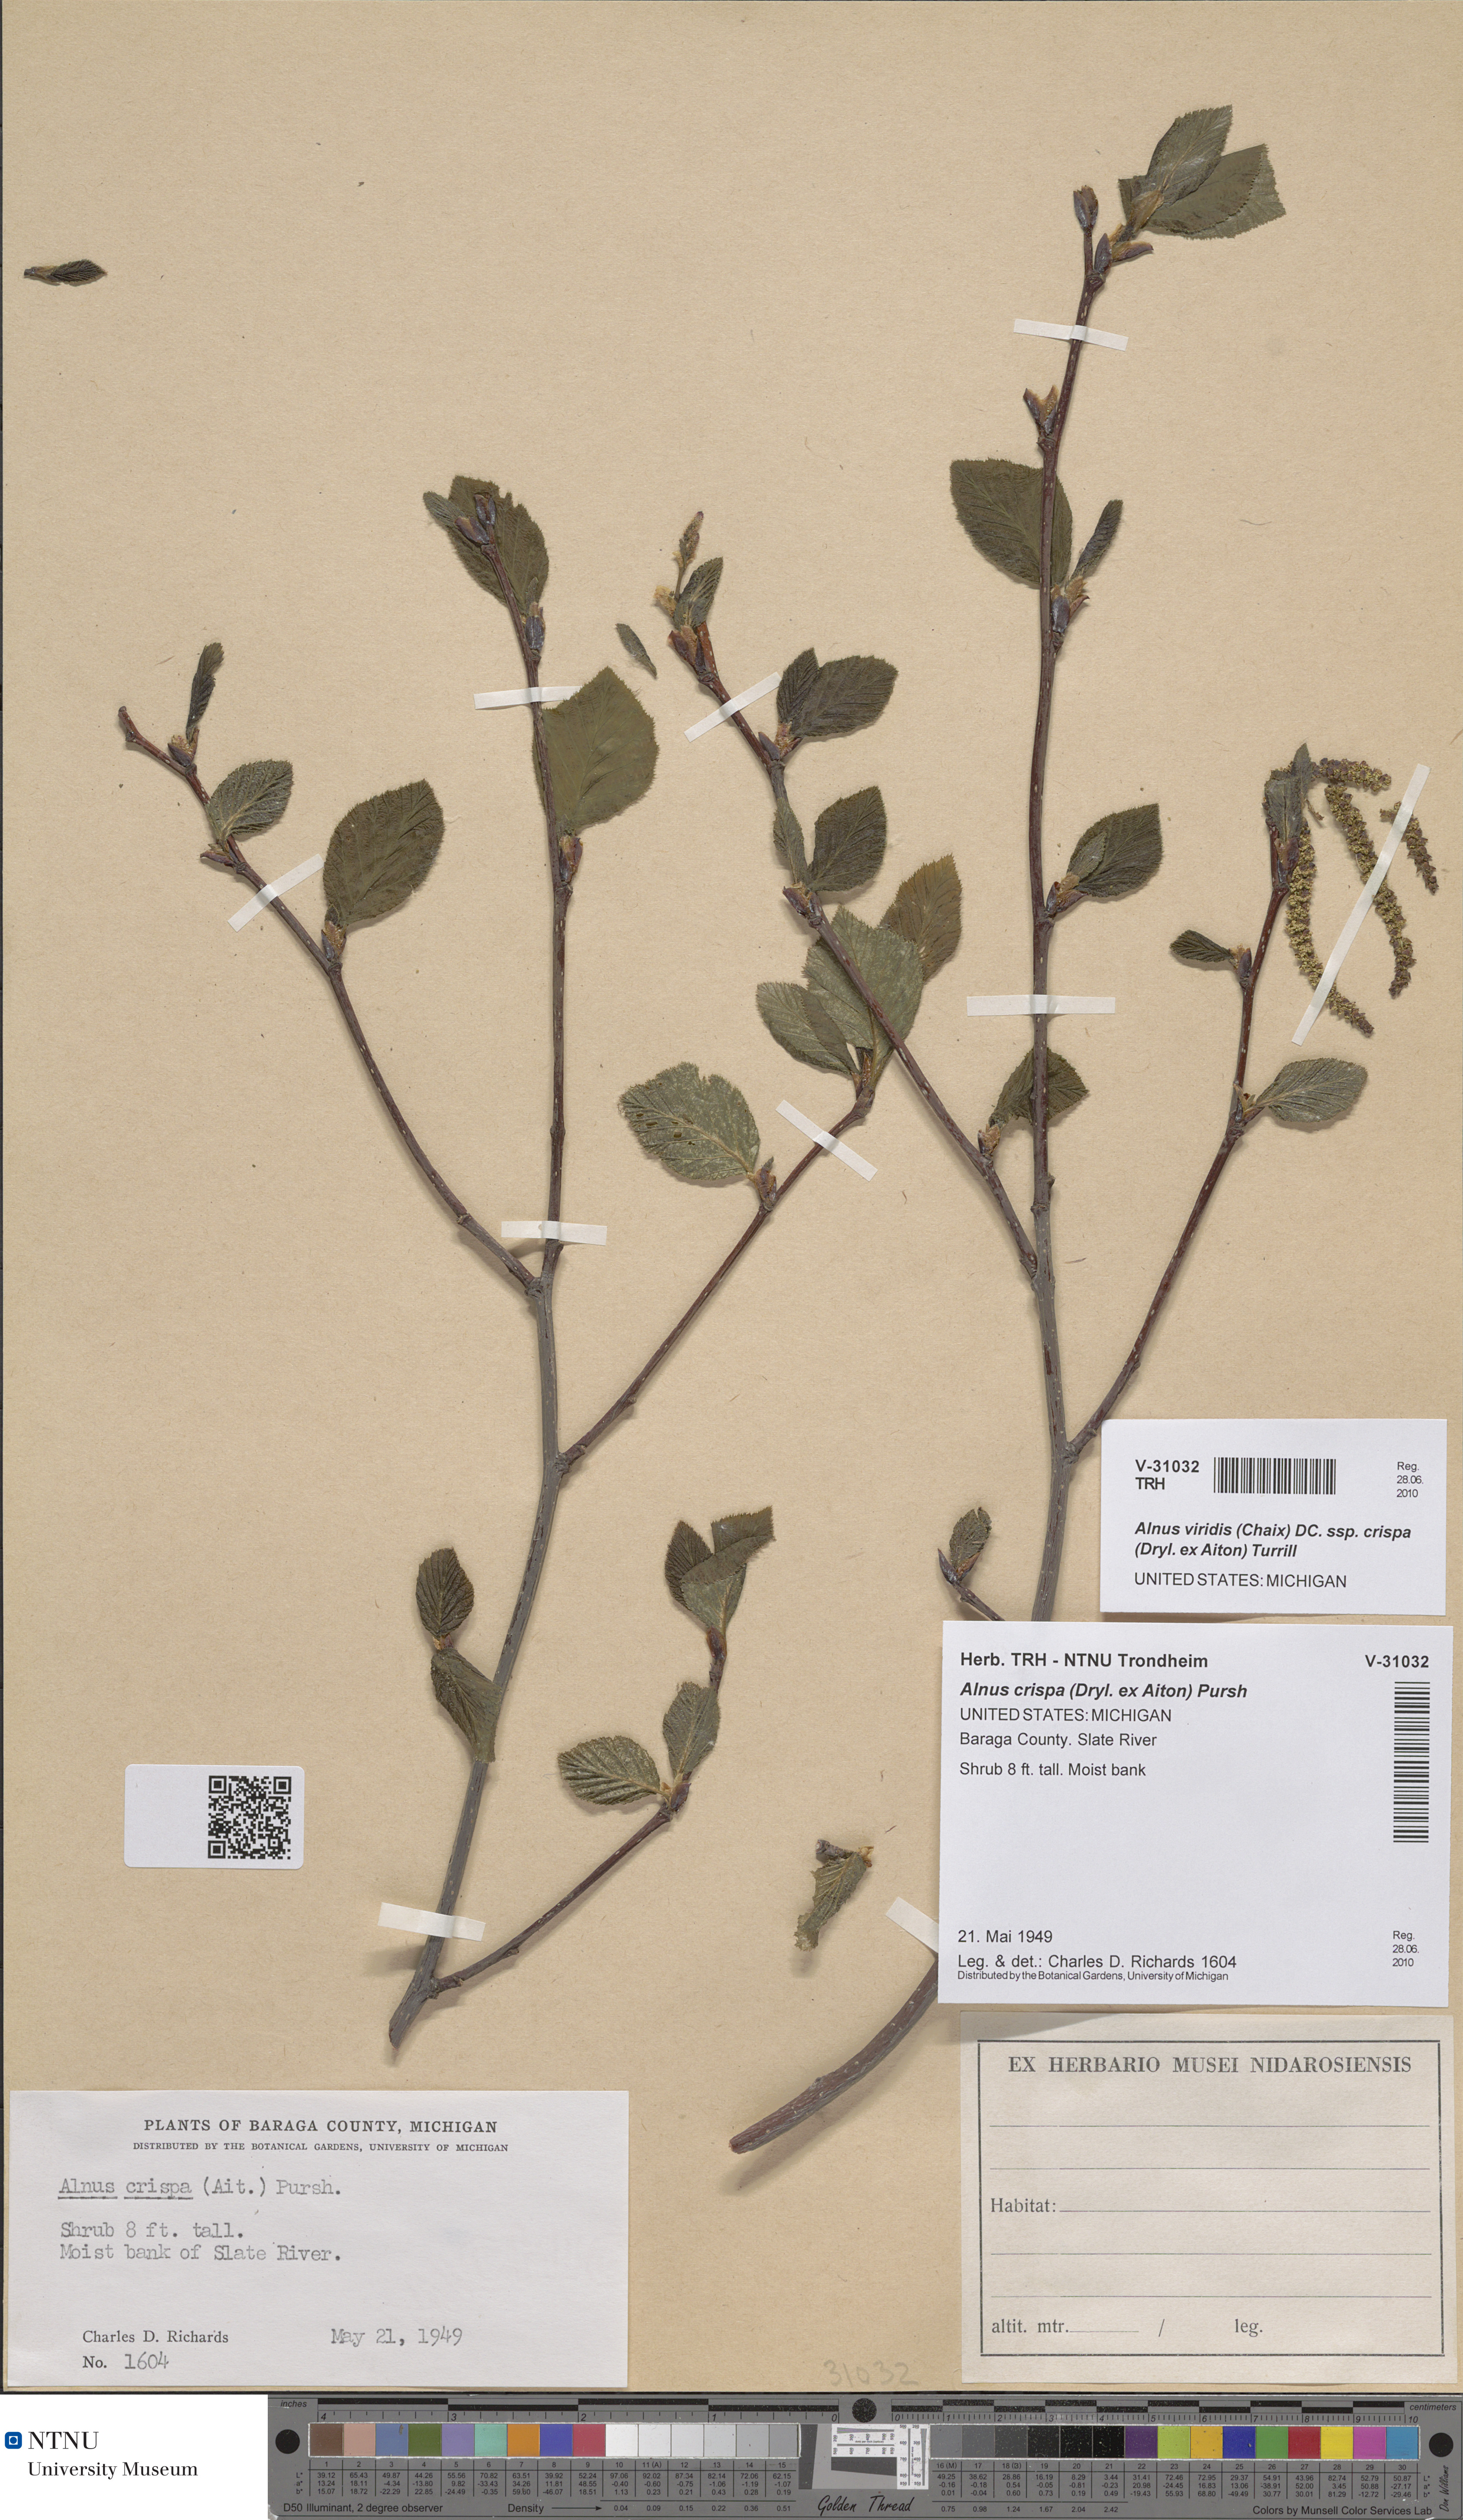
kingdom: Plantae
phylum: Tracheophyta
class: Magnoliopsida
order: Fagales
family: Betulaceae
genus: Alnus
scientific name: Alnus alnobetula
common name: Green alder
